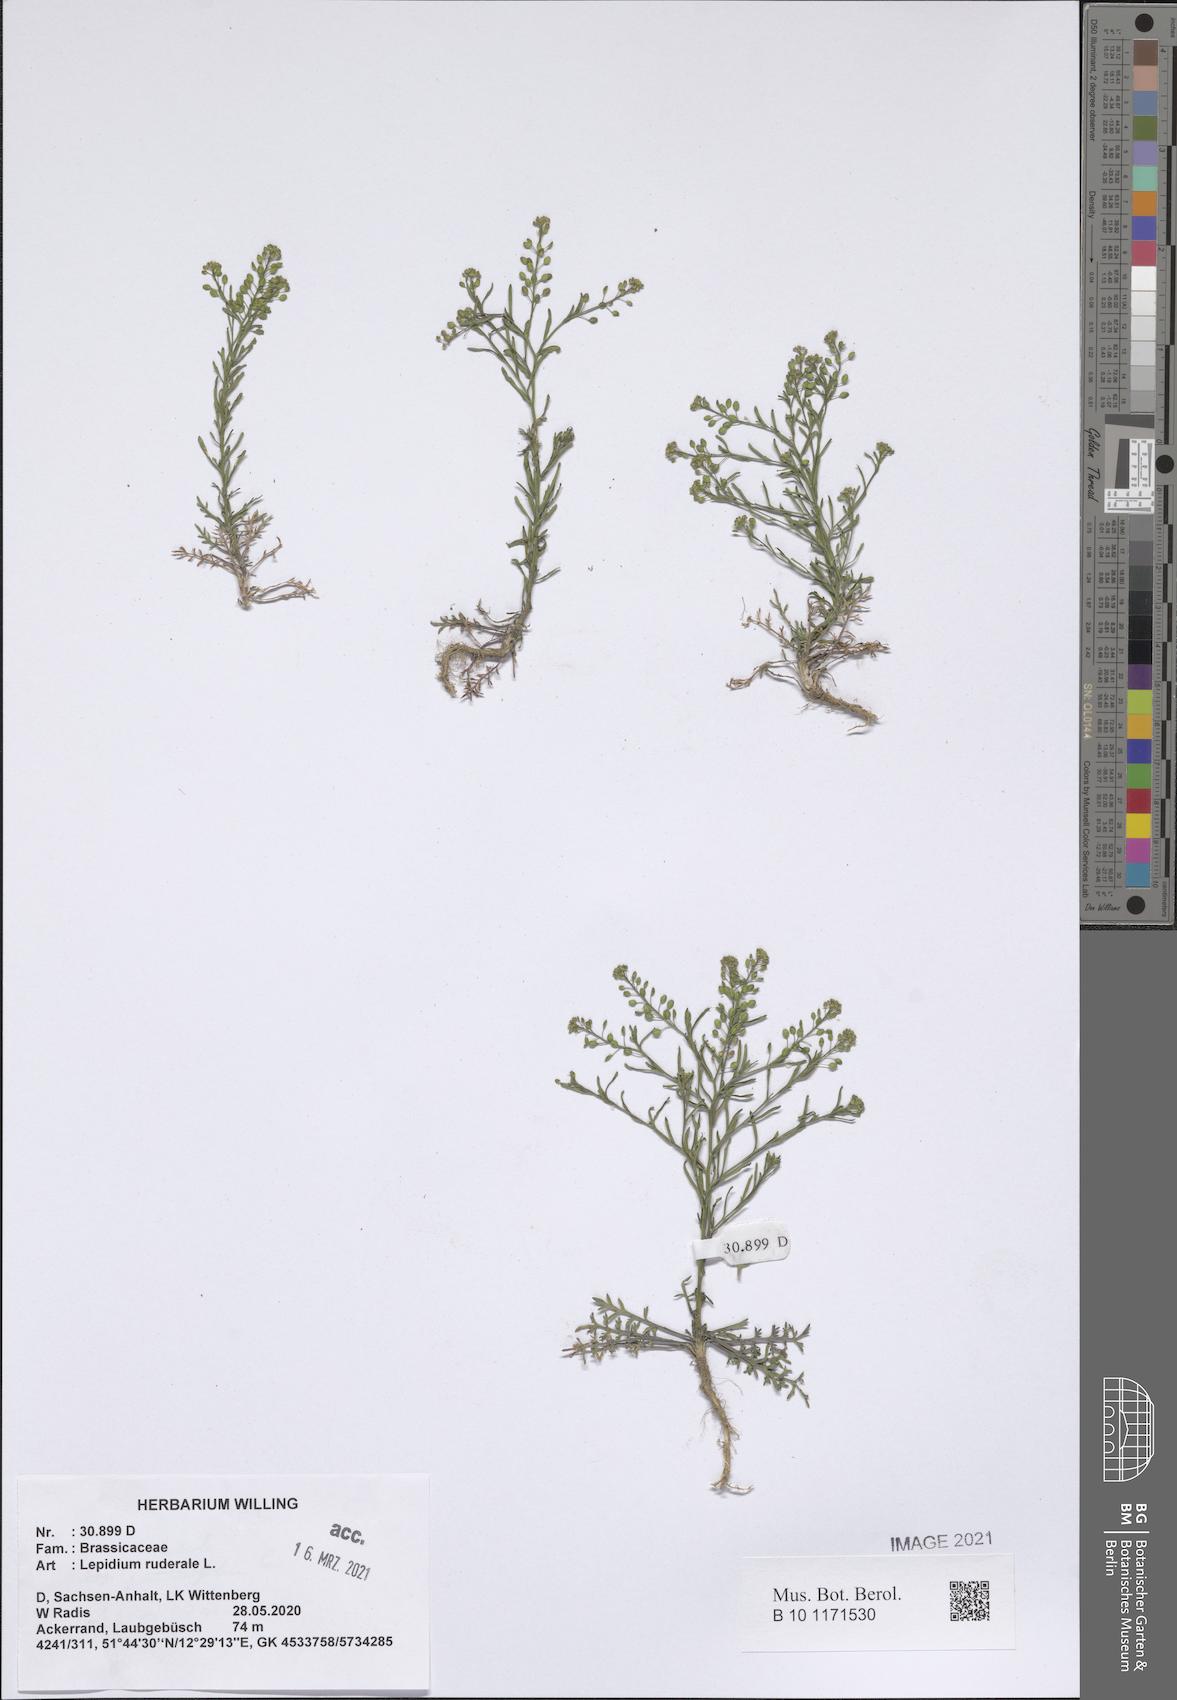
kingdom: Plantae
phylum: Tracheophyta
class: Magnoliopsida
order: Brassicales
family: Brassicaceae
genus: Lepidium
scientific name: Lepidium ruderale
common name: Narrow-leaved pepperwort
